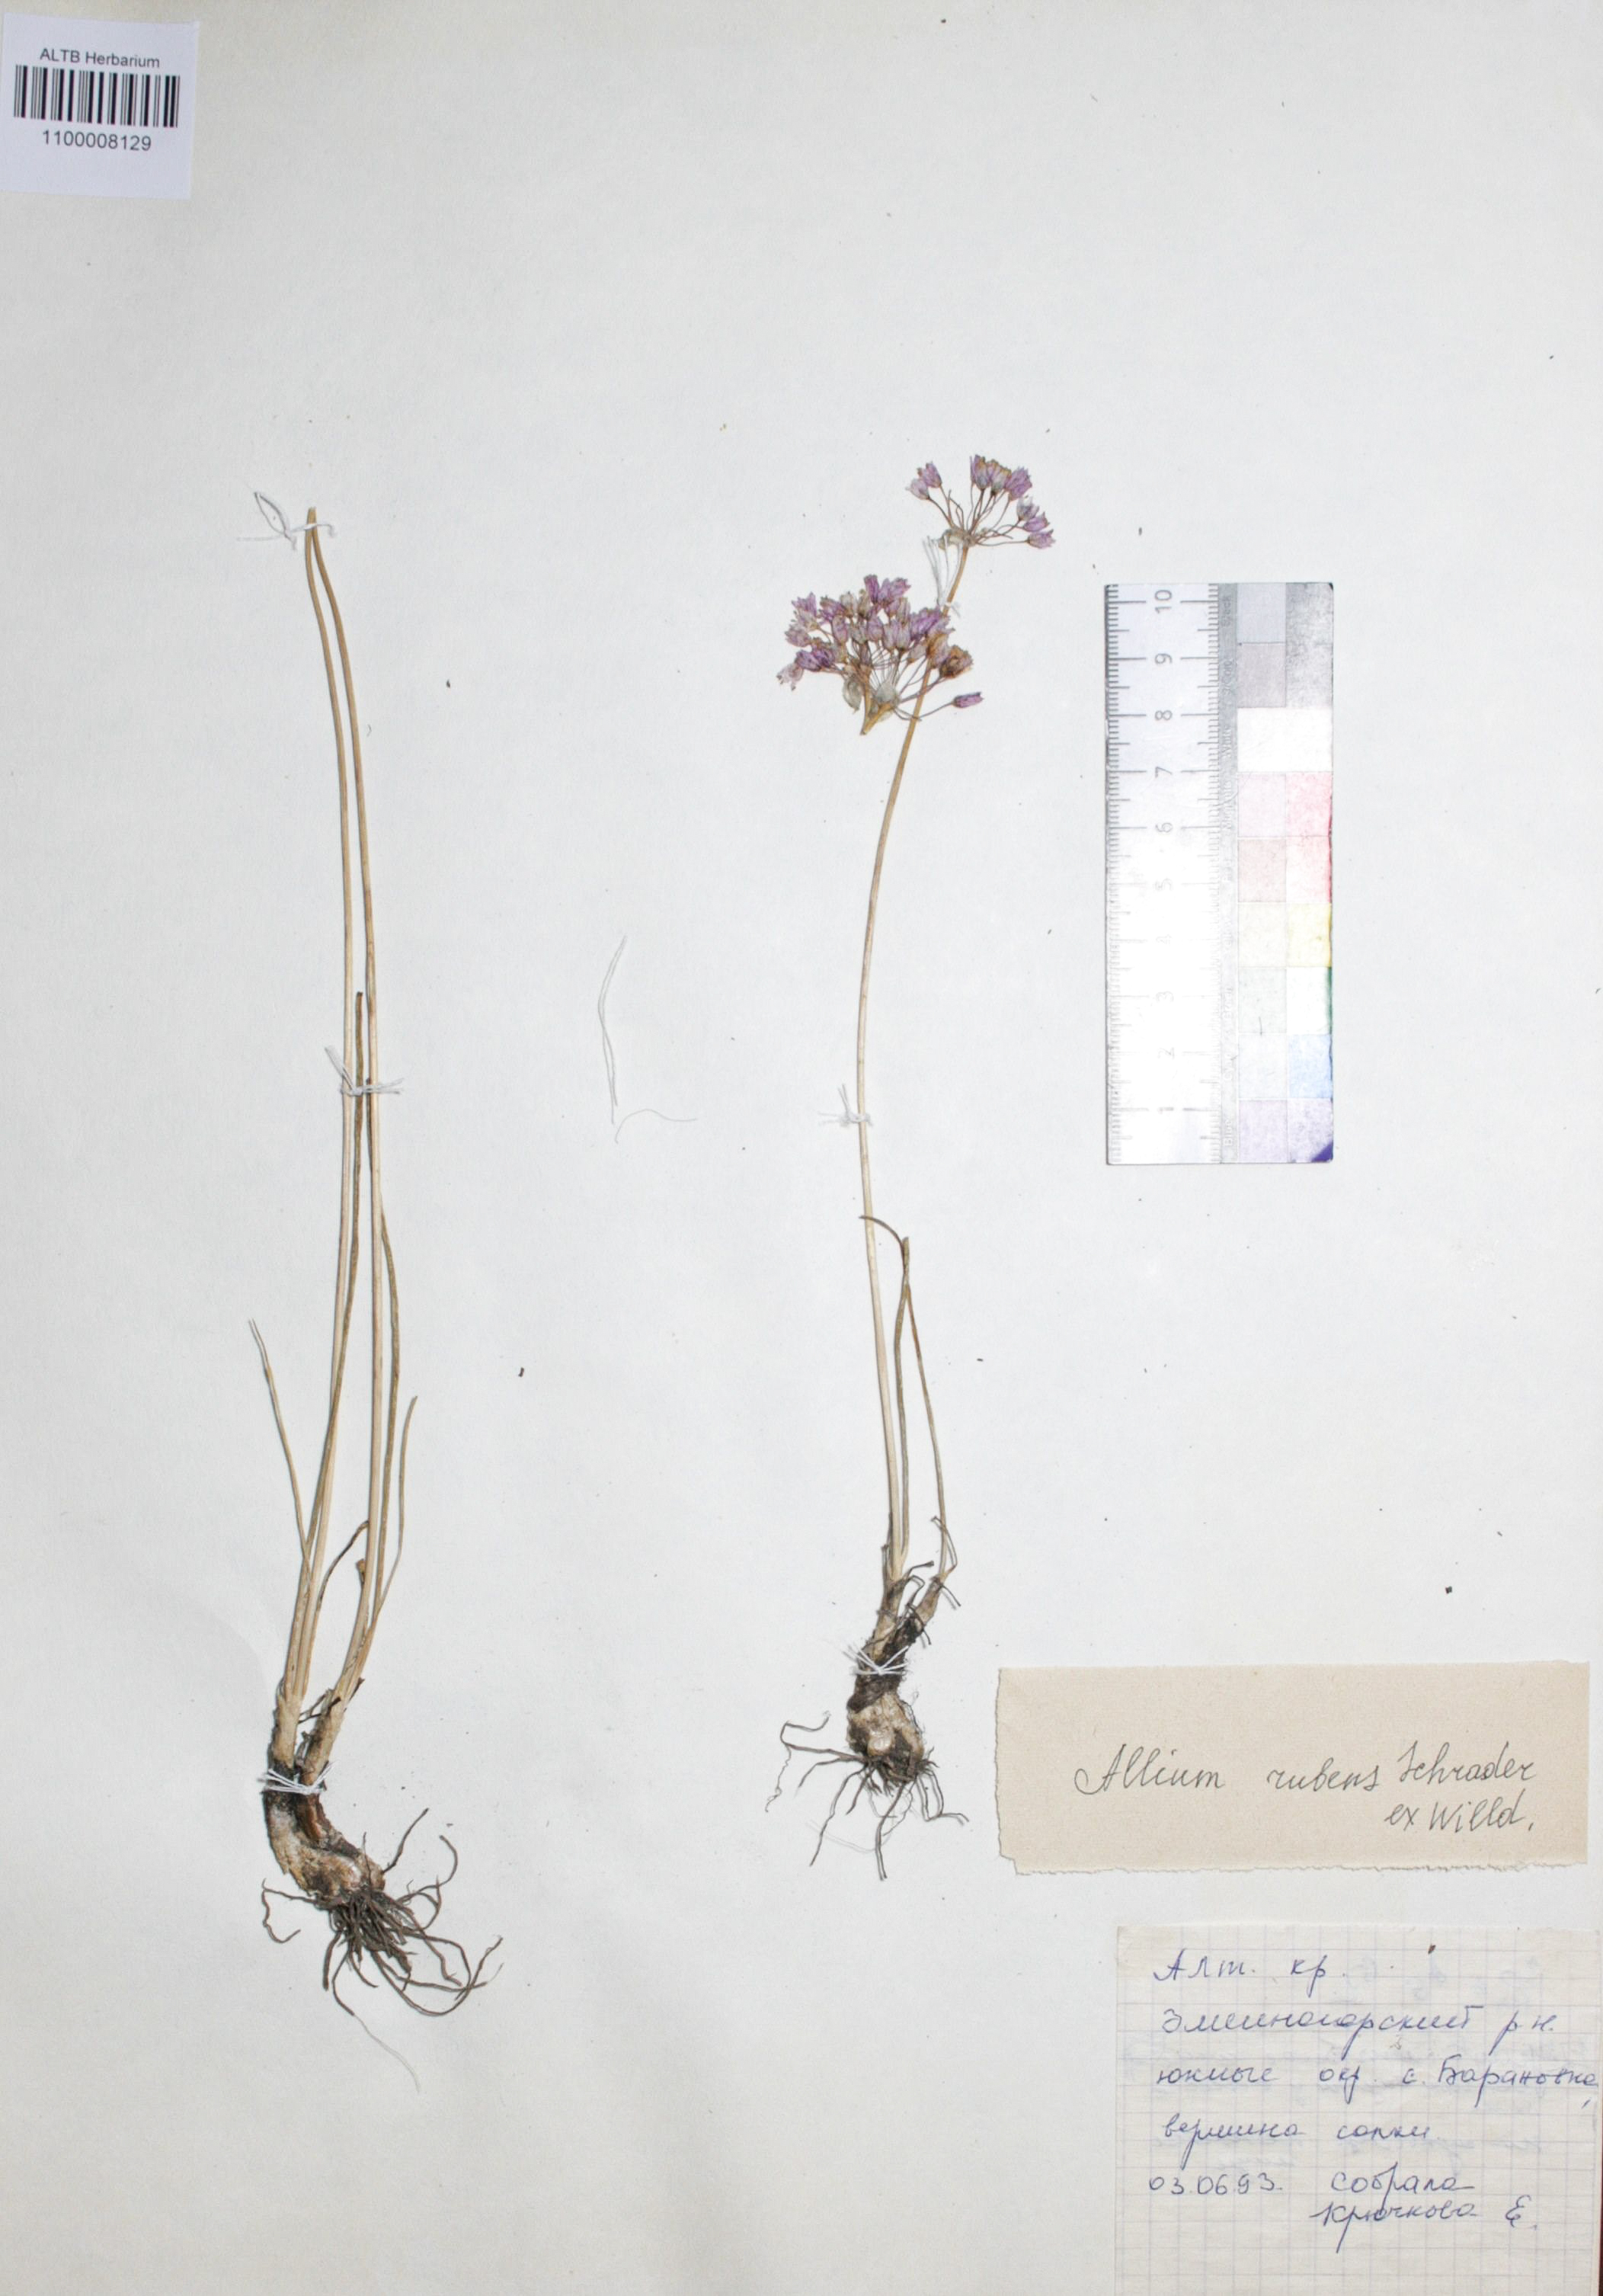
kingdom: Plantae
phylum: Tracheophyta
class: Liliopsida
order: Asparagales
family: Amaryllidaceae
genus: Allium
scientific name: Allium rubens
